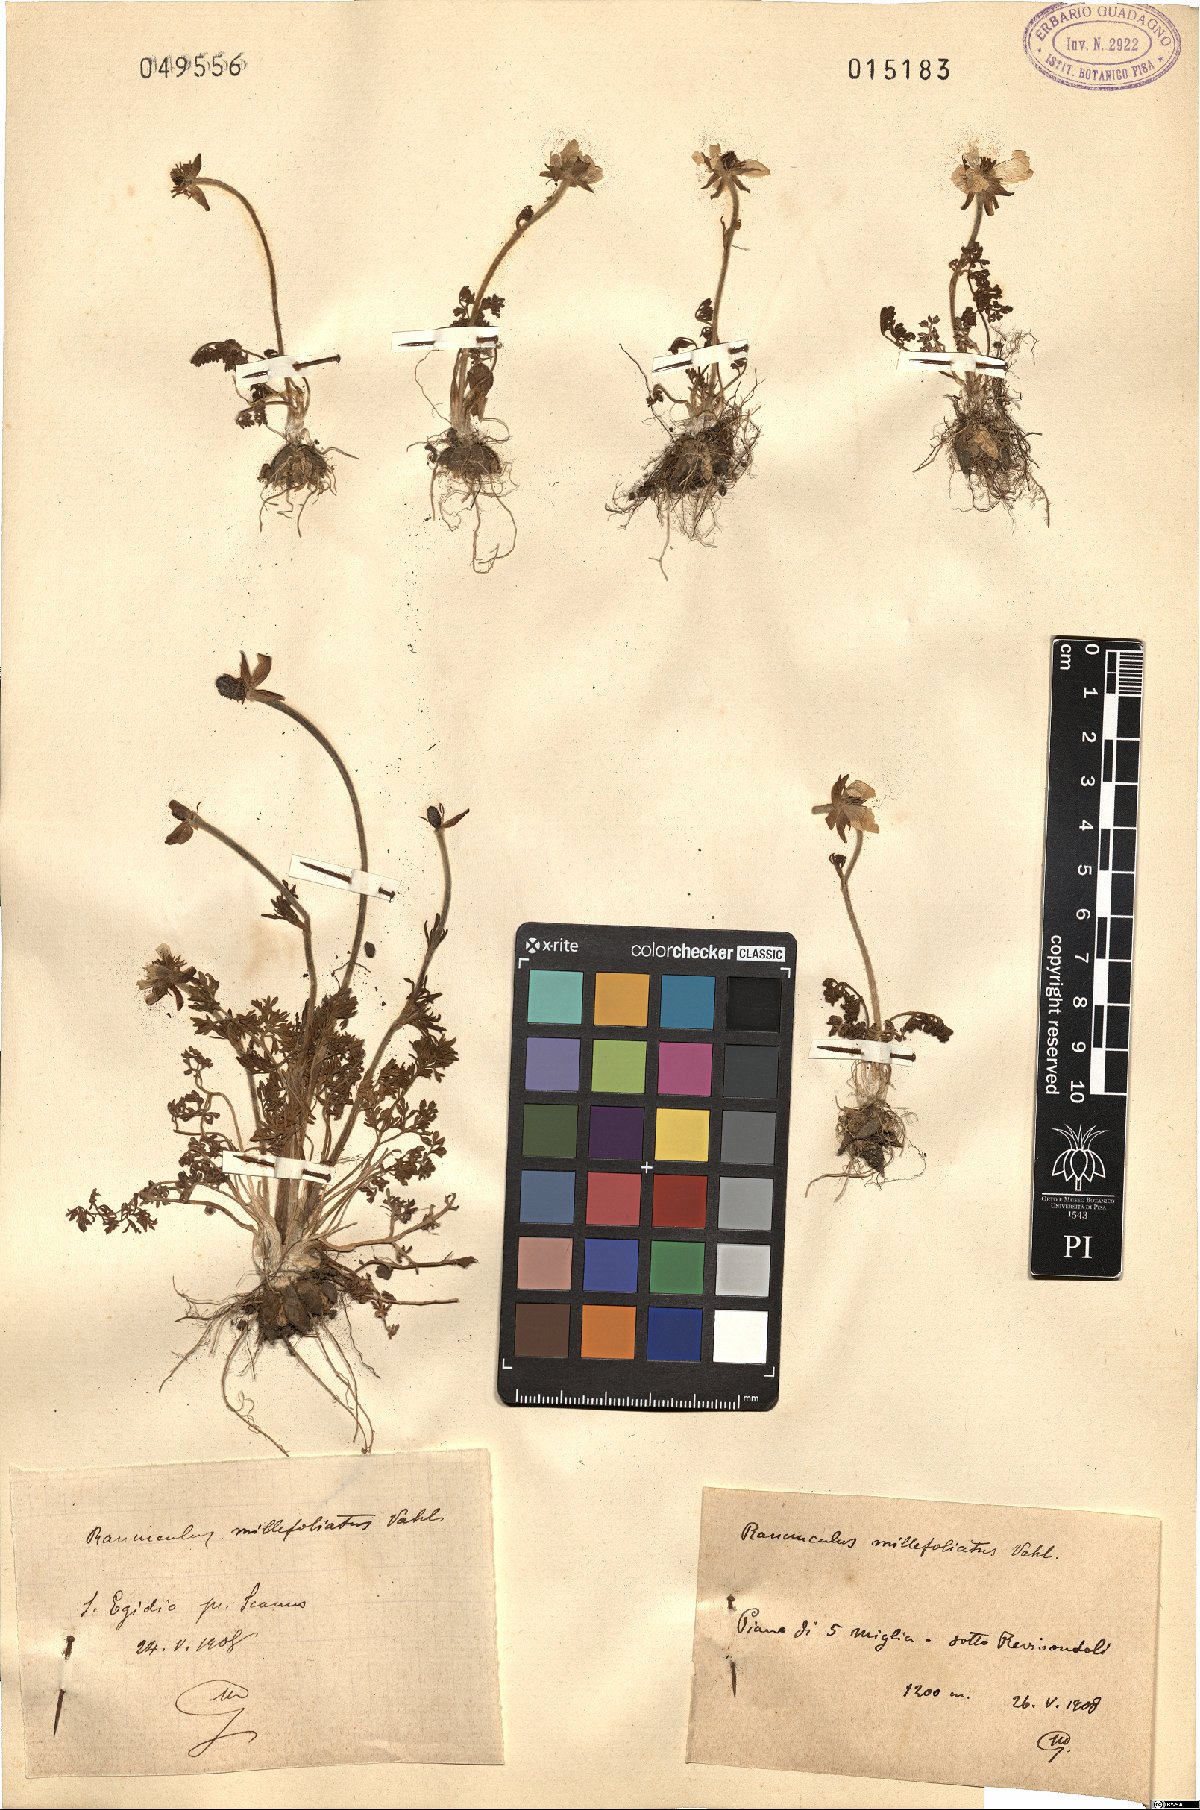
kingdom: Plantae
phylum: Tracheophyta
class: Magnoliopsida
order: Ranunculales
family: Ranunculaceae
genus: Ranunculus
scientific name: Ranunculus millefoliatus
